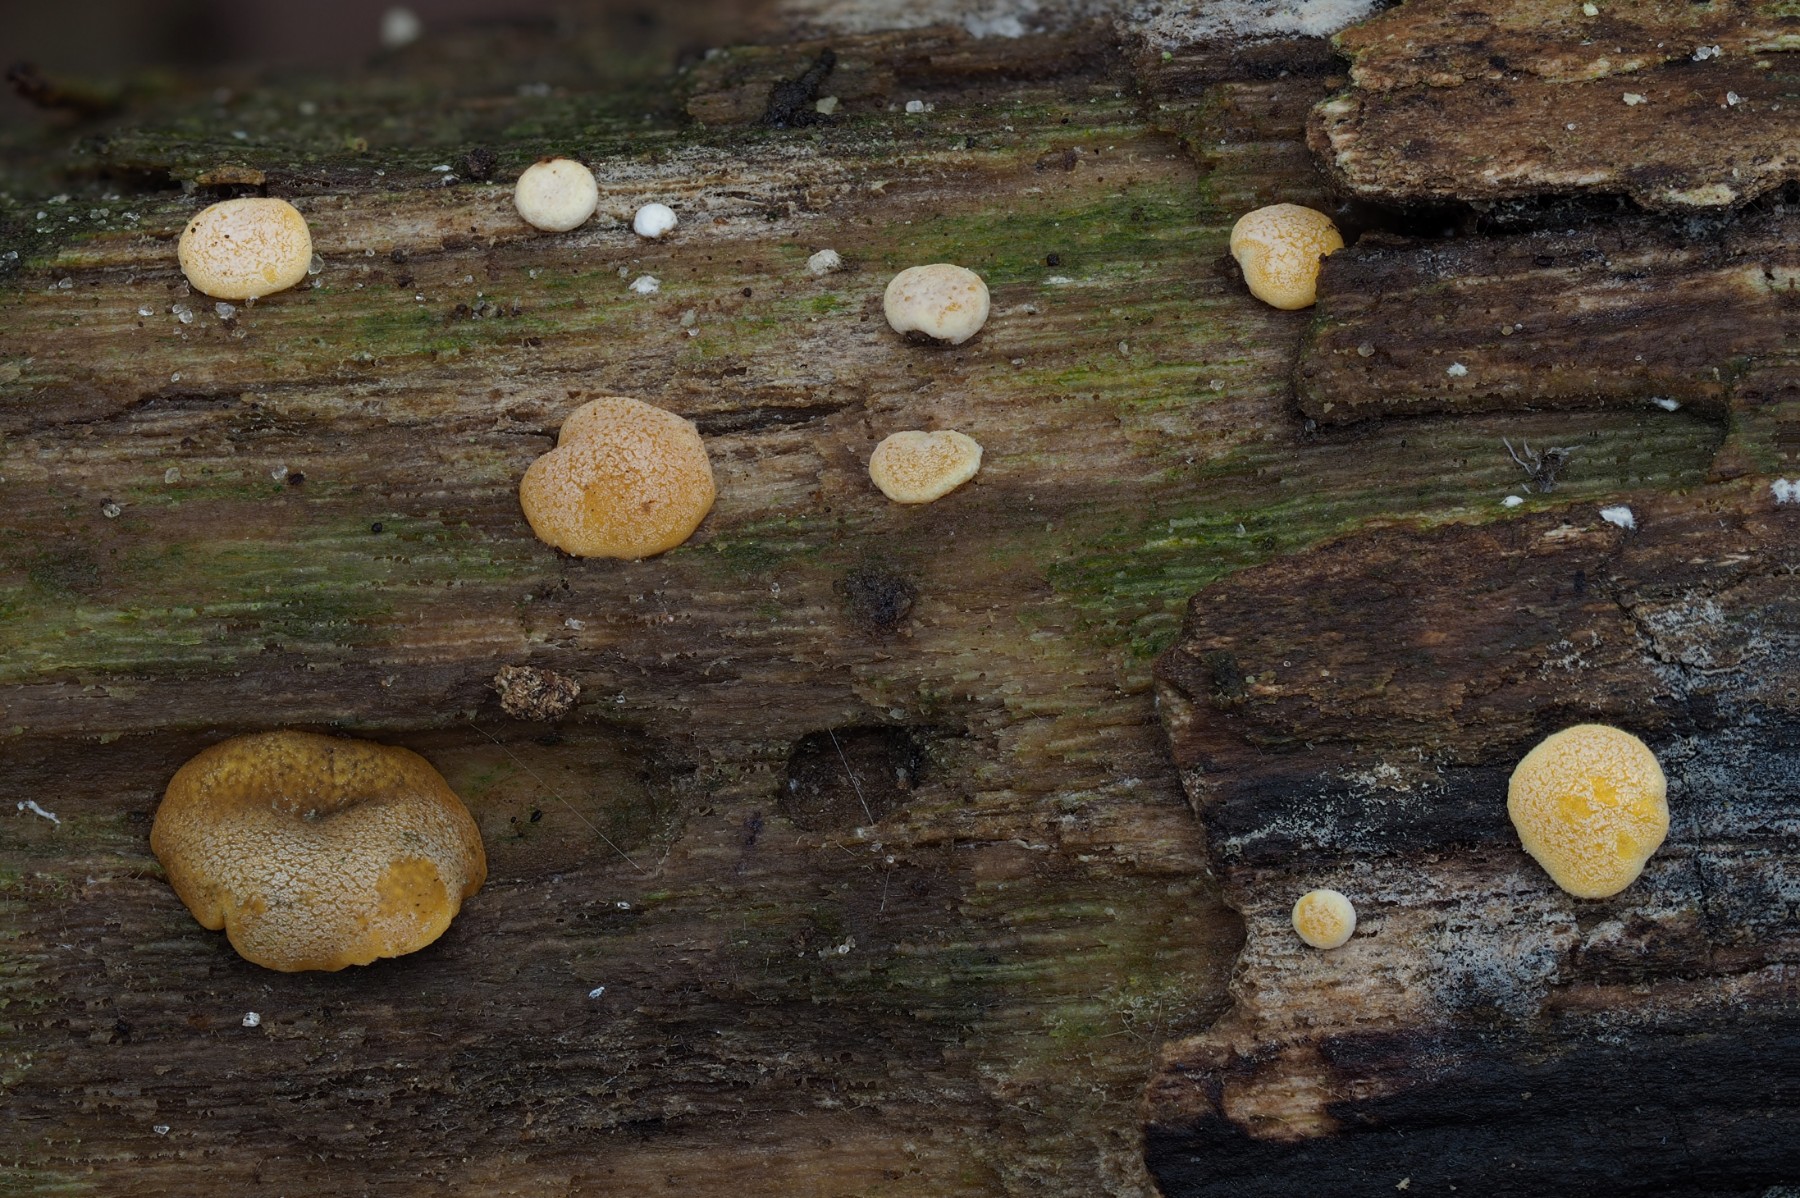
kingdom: Fungi
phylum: Ascomycota
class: Sordariomycetes
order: Hypocreales
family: Hypocreaceae
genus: Trichoderma
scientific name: Trichoderma aureoviride
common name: æggegul kødkerne
